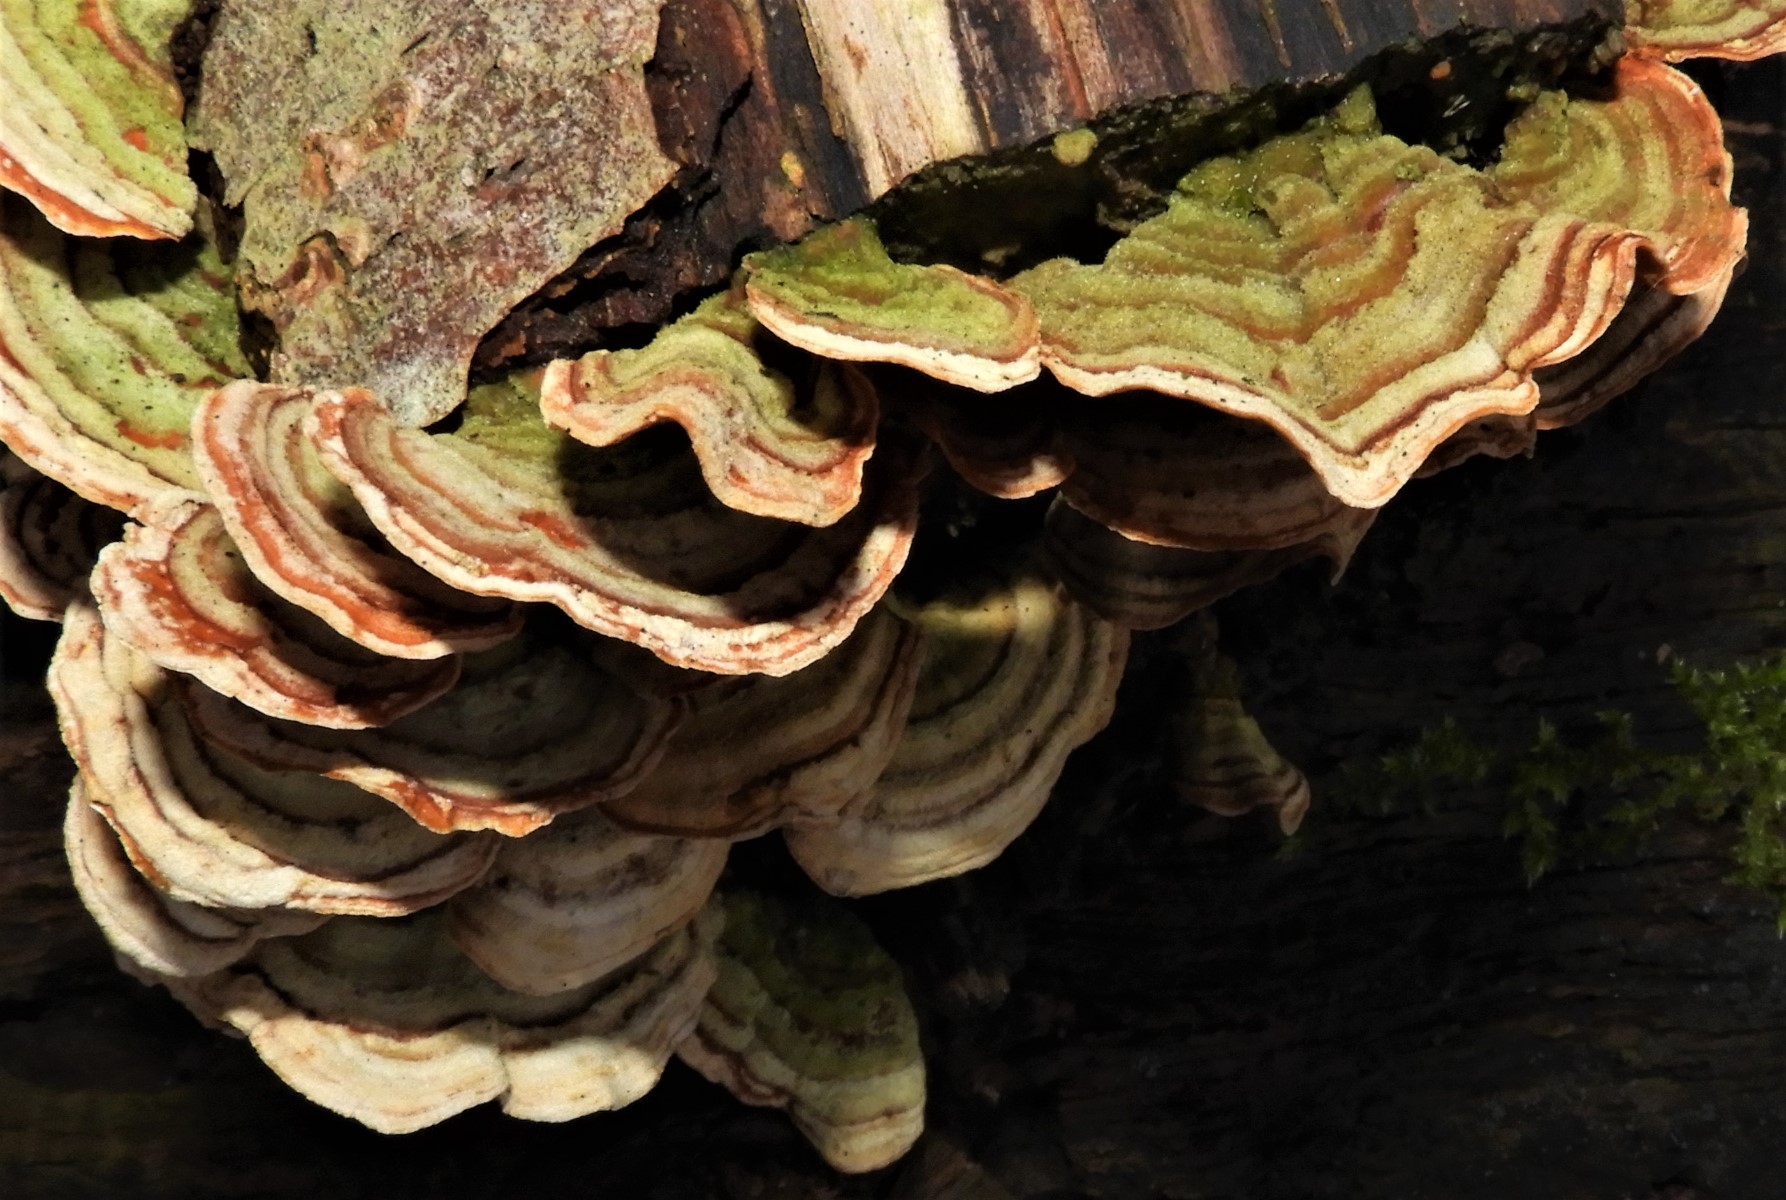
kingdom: Fungi
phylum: Basidiomycota
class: Agaricomycetes
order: Russulales
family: Stereaceae
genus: Stereum
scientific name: Stereum subtomentosum
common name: smuk lædersvamp
